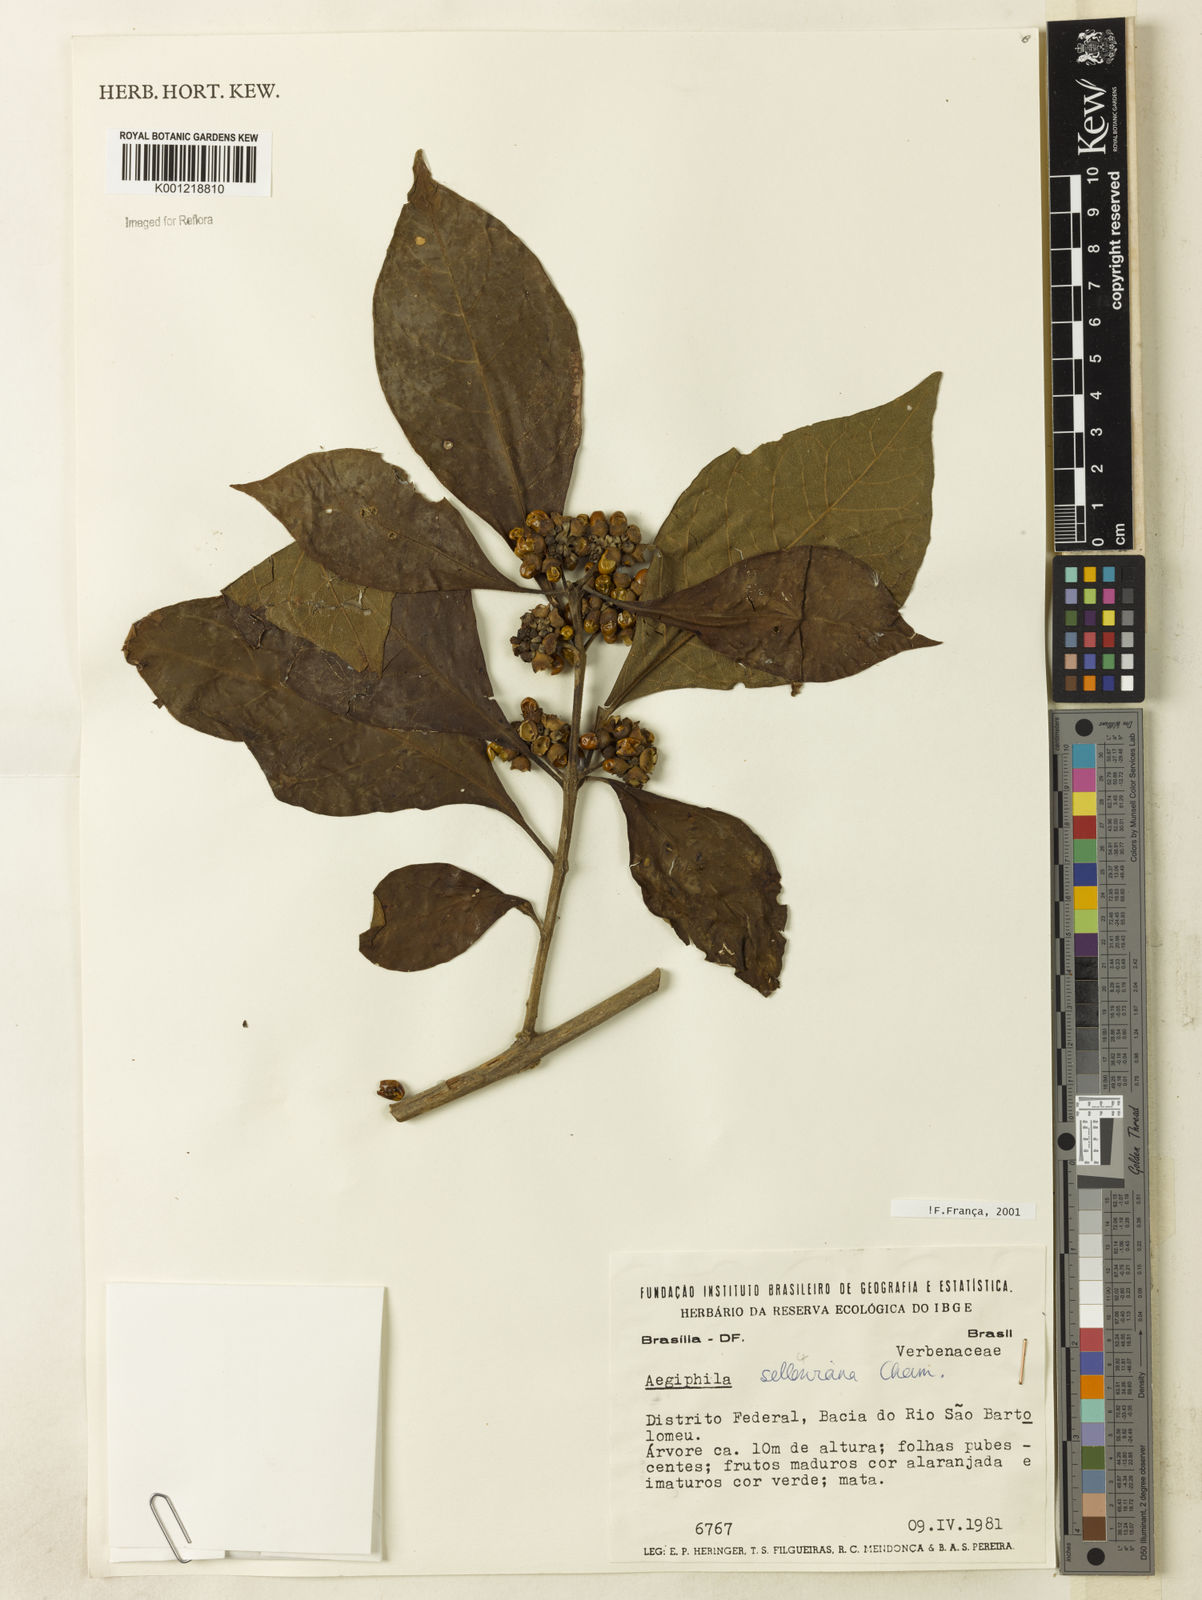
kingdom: Plantae
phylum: Tracheophyta
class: Magnoliopsida
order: Lamiales
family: Lamiaceae
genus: Aegiphila
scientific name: Aegiphila verticillata
